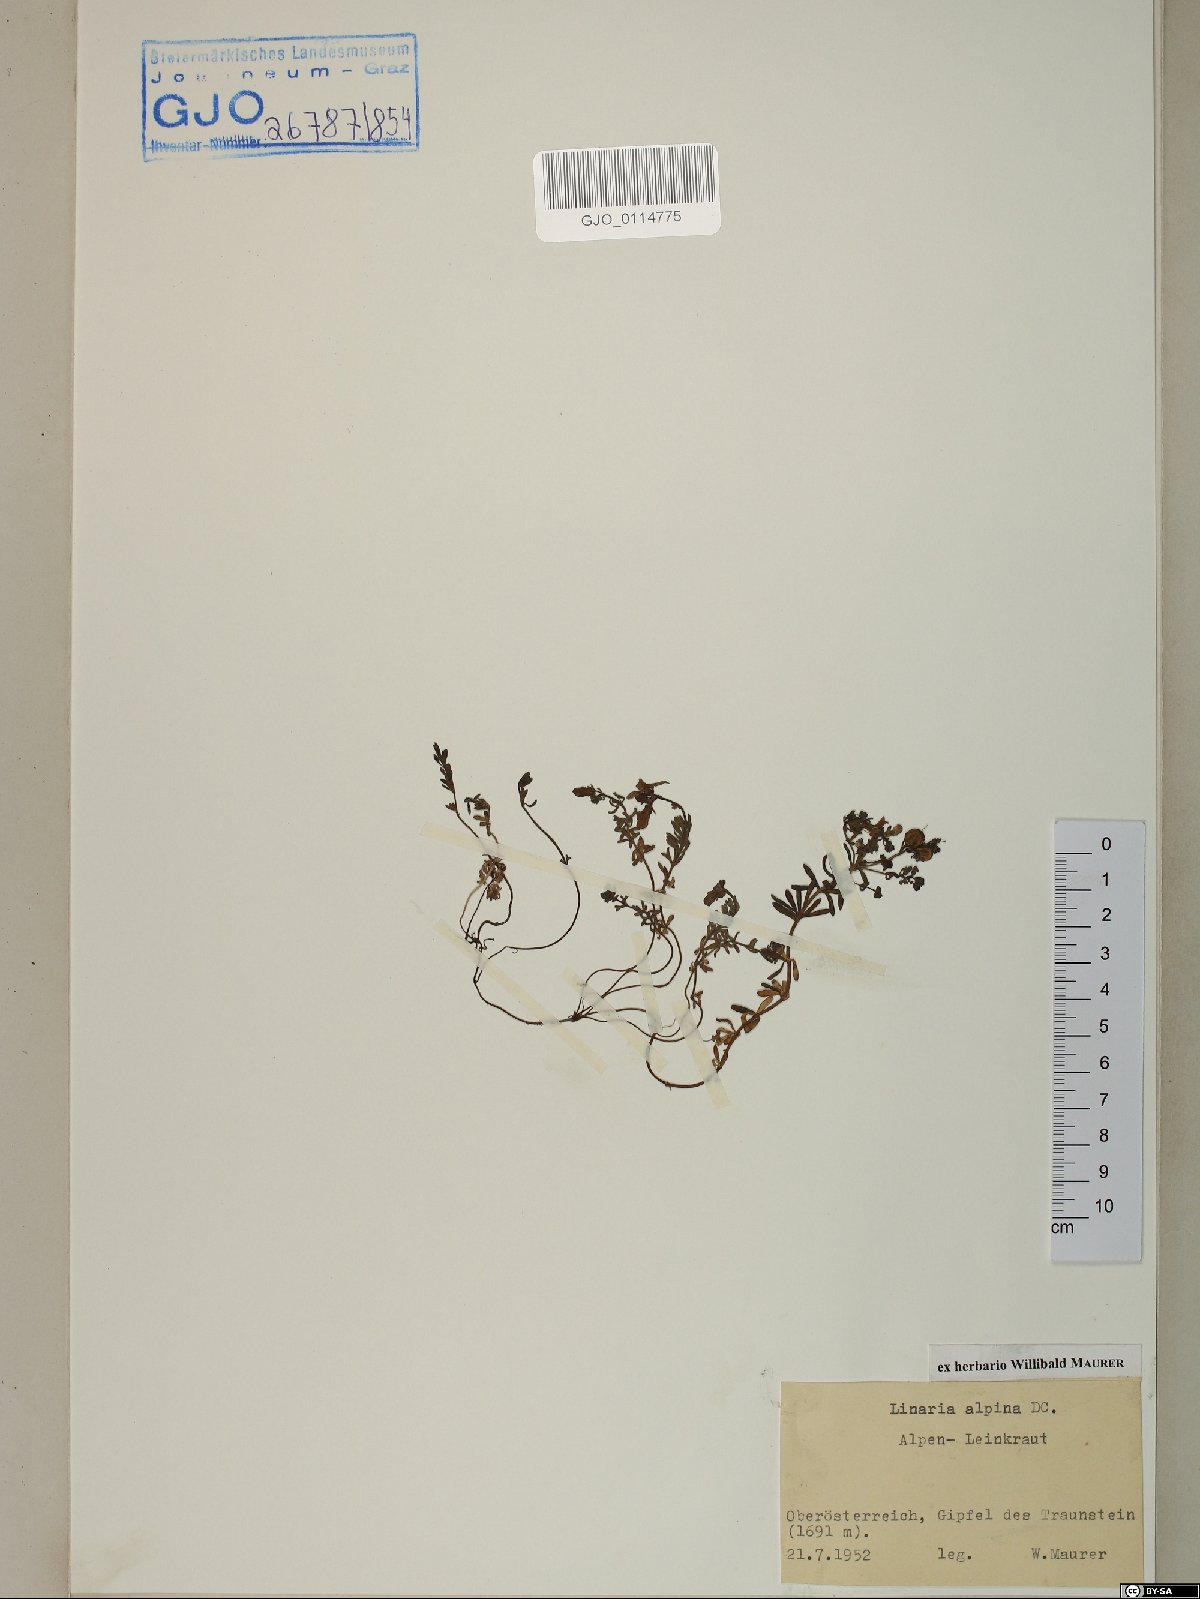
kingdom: Plantae
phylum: Tracheophyta
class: Magnoliopsida
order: Lamiales
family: Plantaginaceae
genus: Linaria
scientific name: Linaria alpina
